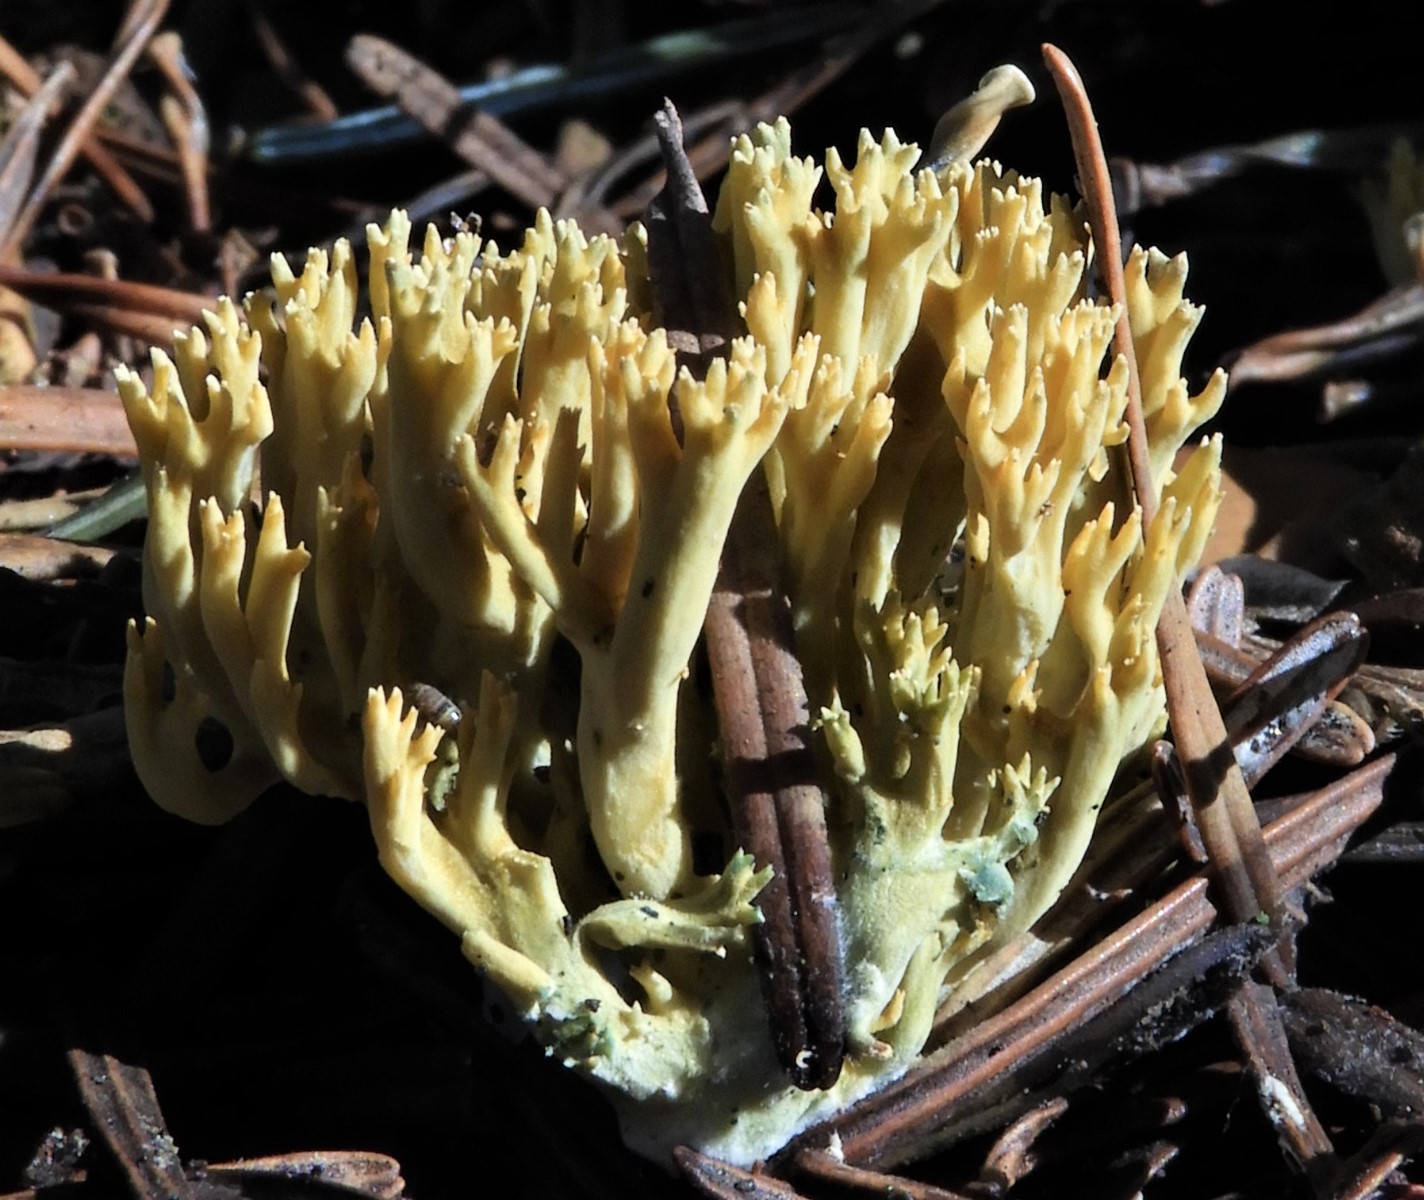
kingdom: Fungi
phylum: Basidiomycota
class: Agaricomycetes
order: Gomphales
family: Gomphaceae
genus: Phaeoclavulina
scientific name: Phaeoclavulina
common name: koralsvamp
